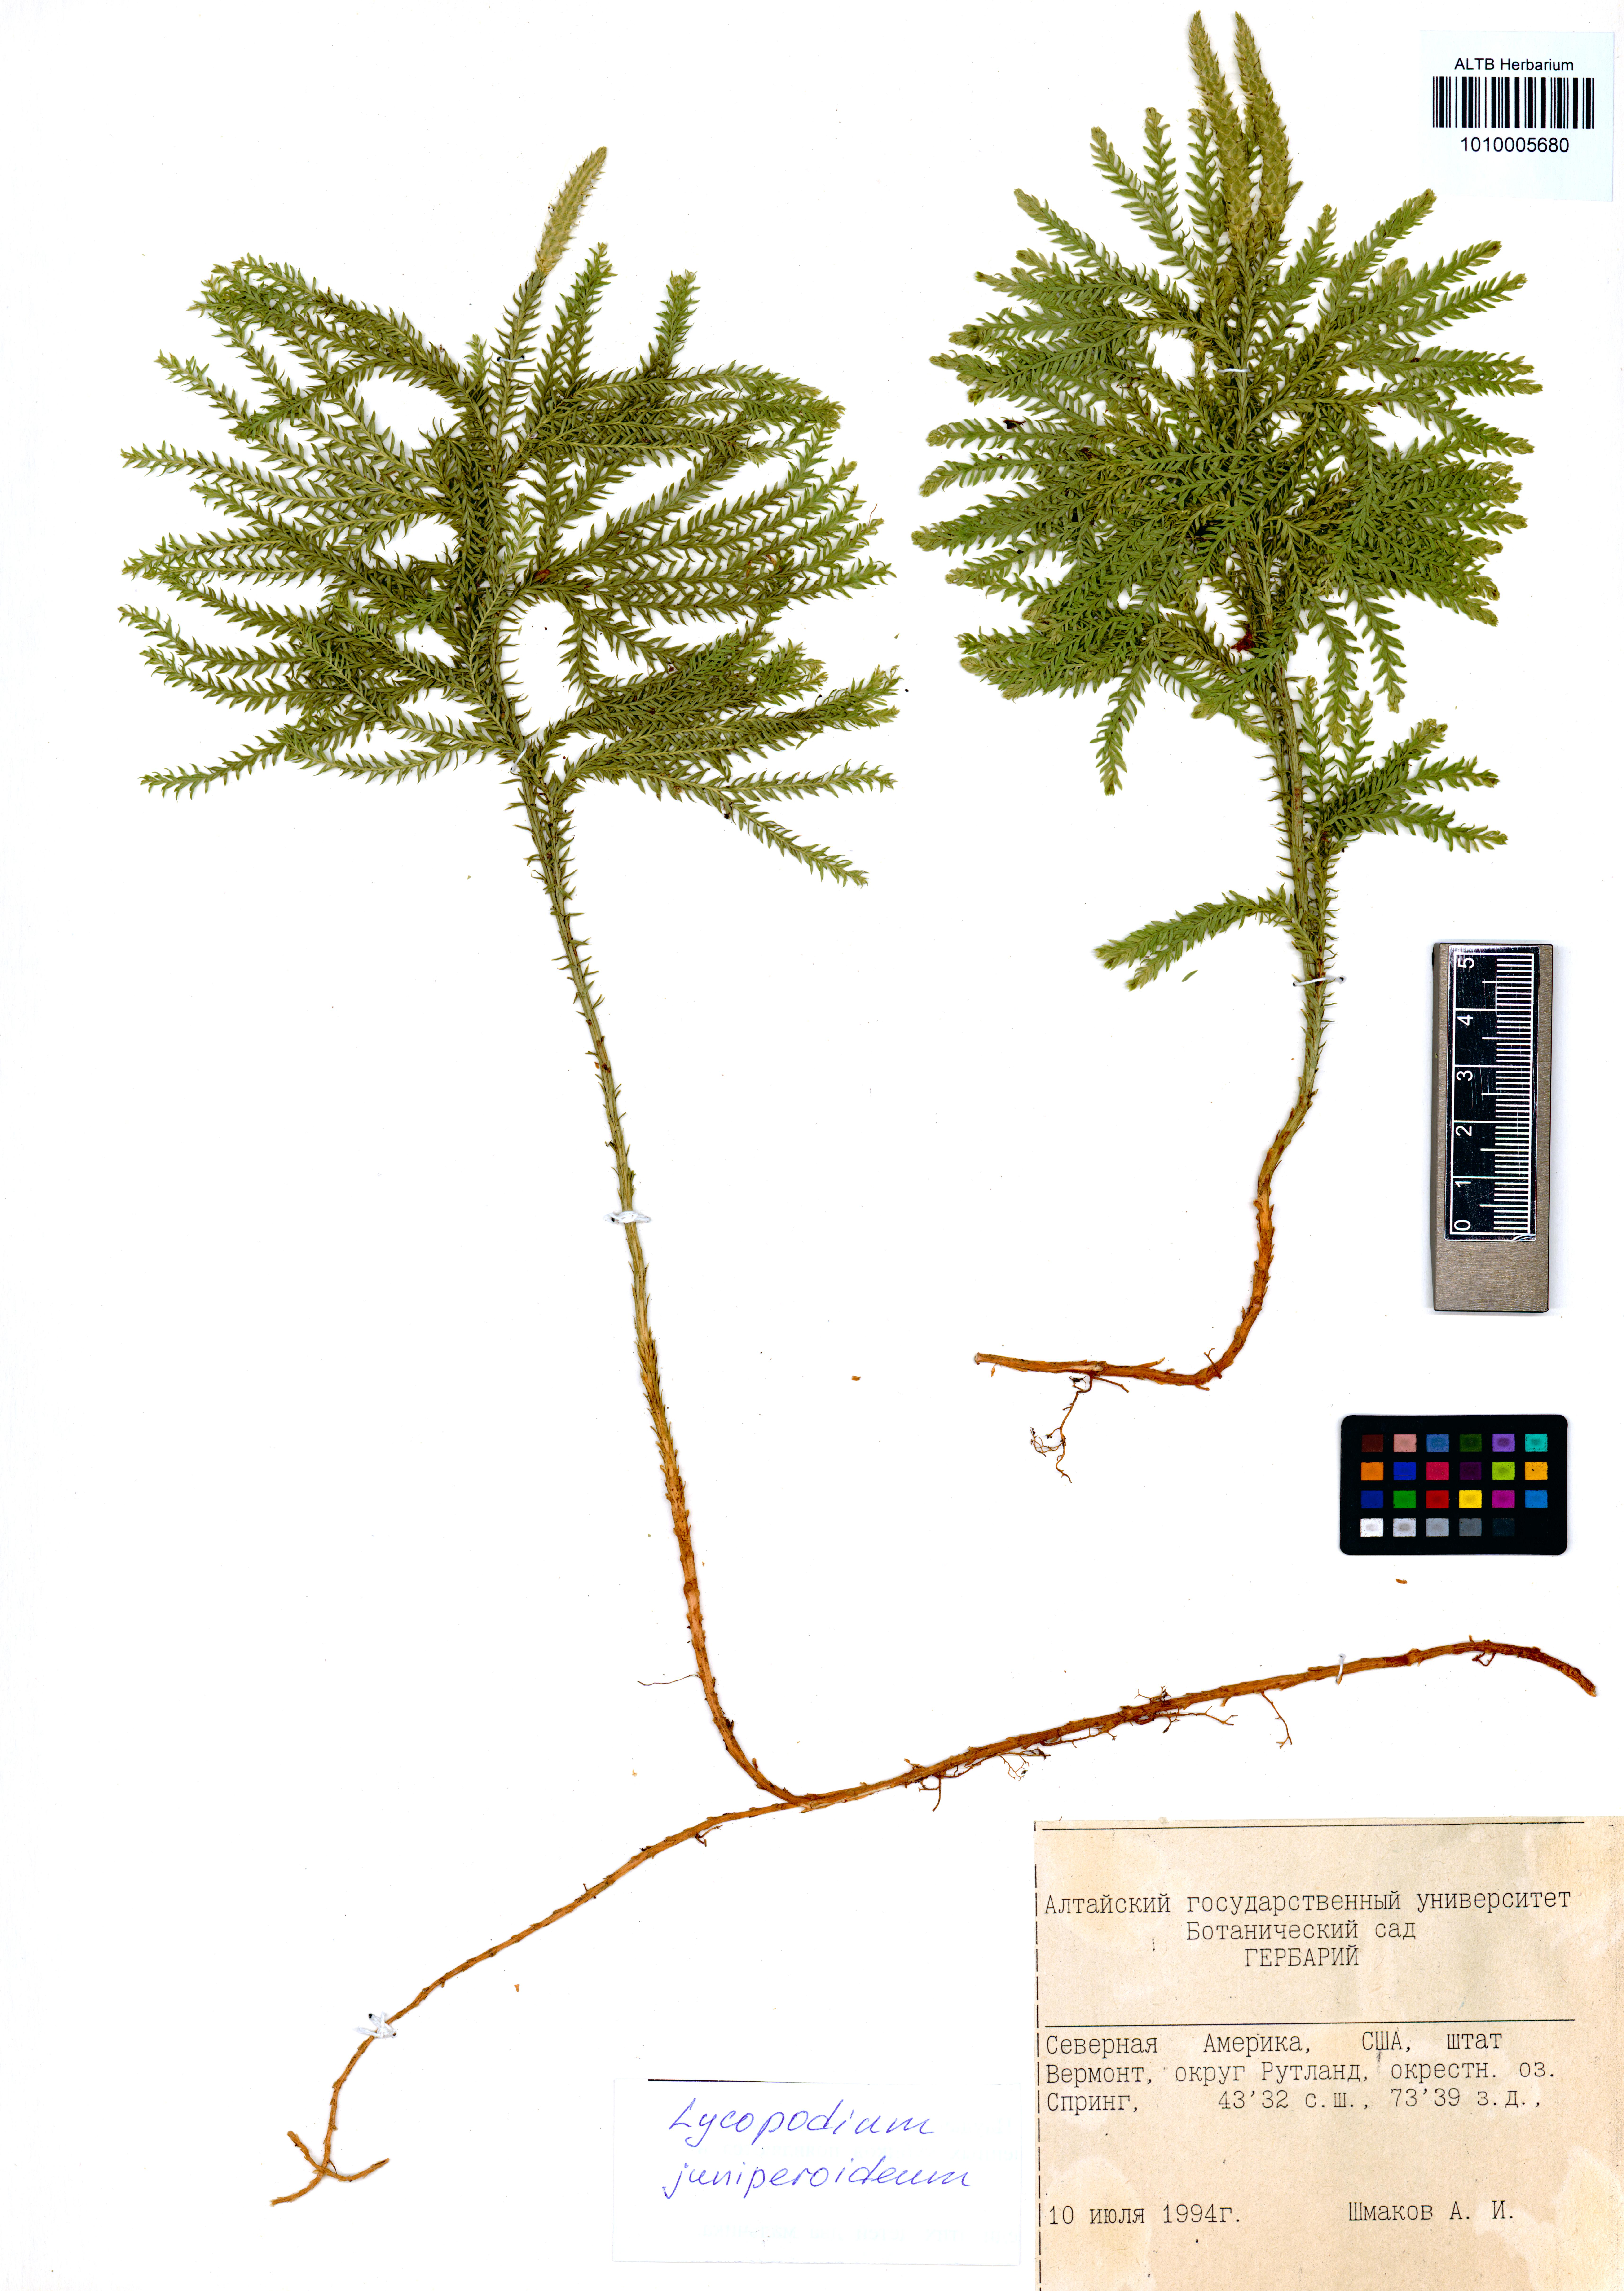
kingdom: Plantae
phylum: Tracheophyta
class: Lycopodiopsida
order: Lycopodiales
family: Lycopodiaceae
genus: Dendrolycopodium
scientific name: Dendrolycopodium juniperoideum
